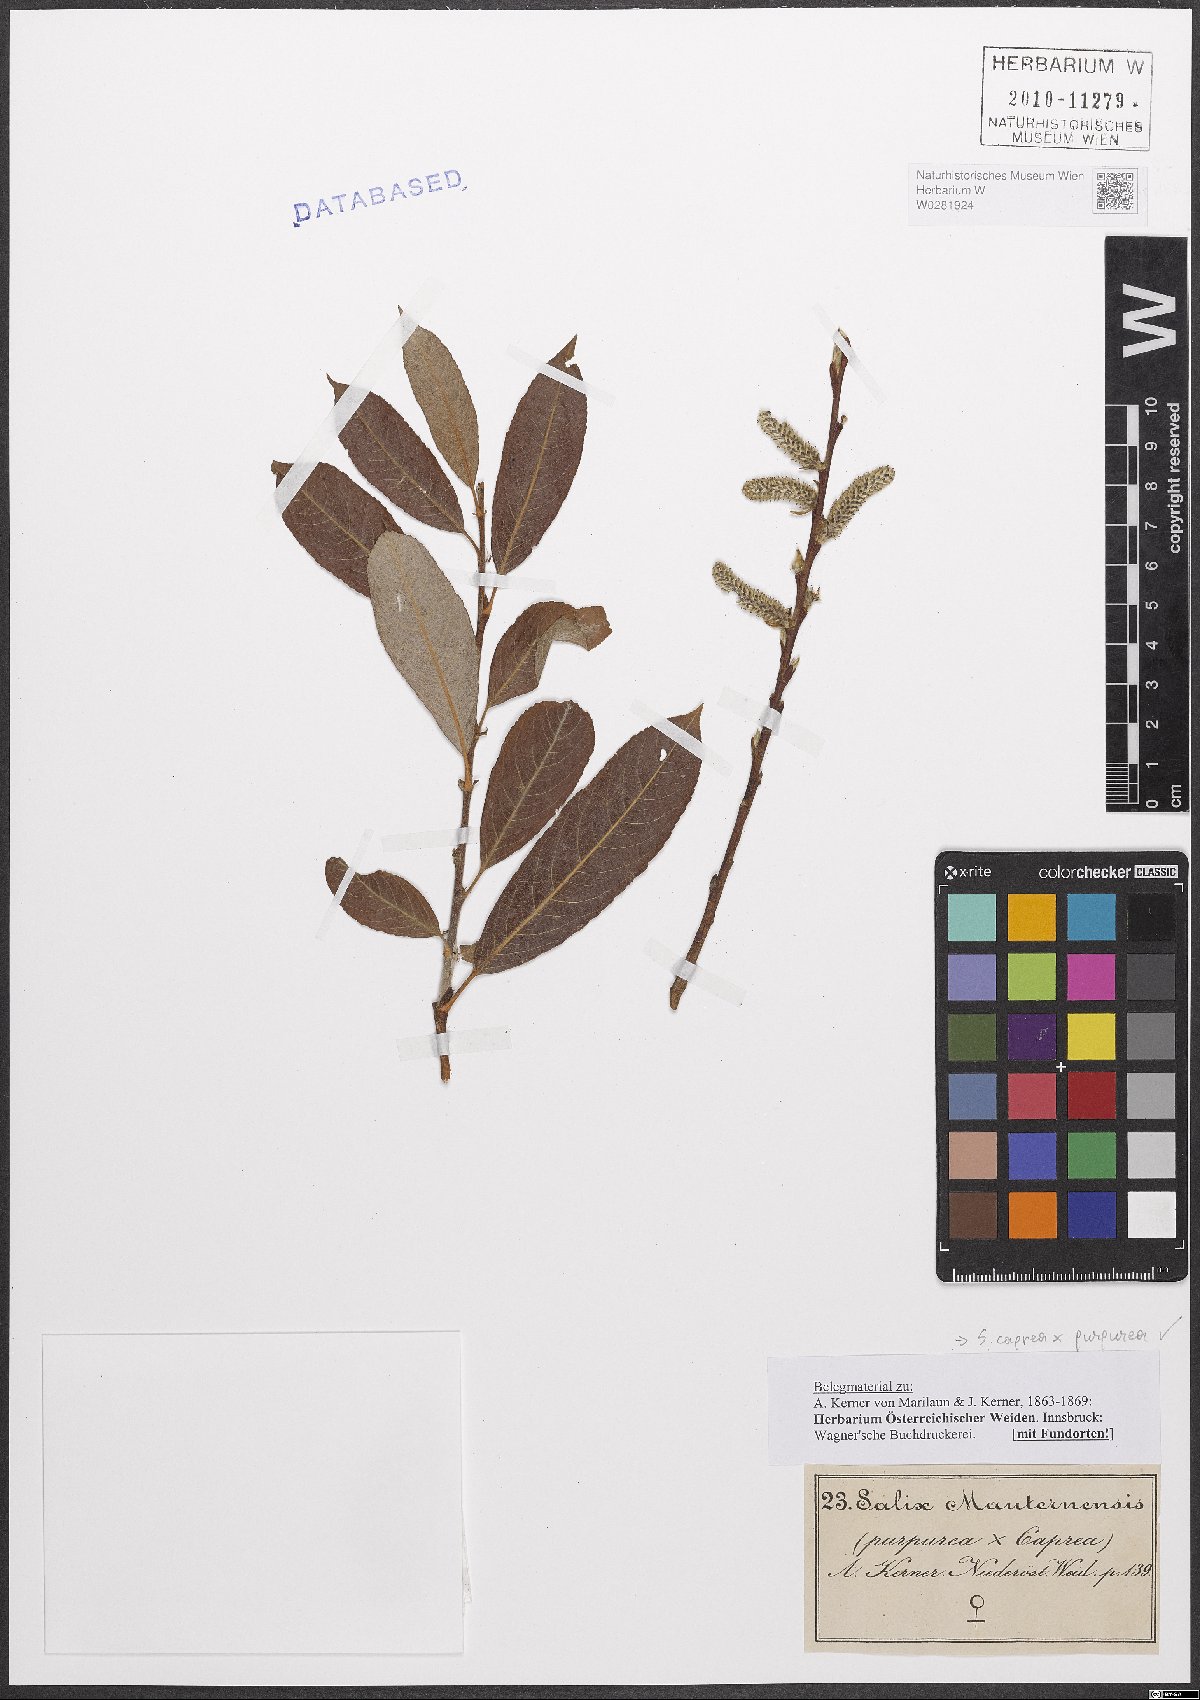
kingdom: Plantae
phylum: Tracheophyta
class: Magnoliopsida
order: Malpighiales
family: Salicaceae
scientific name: Salicaceae
